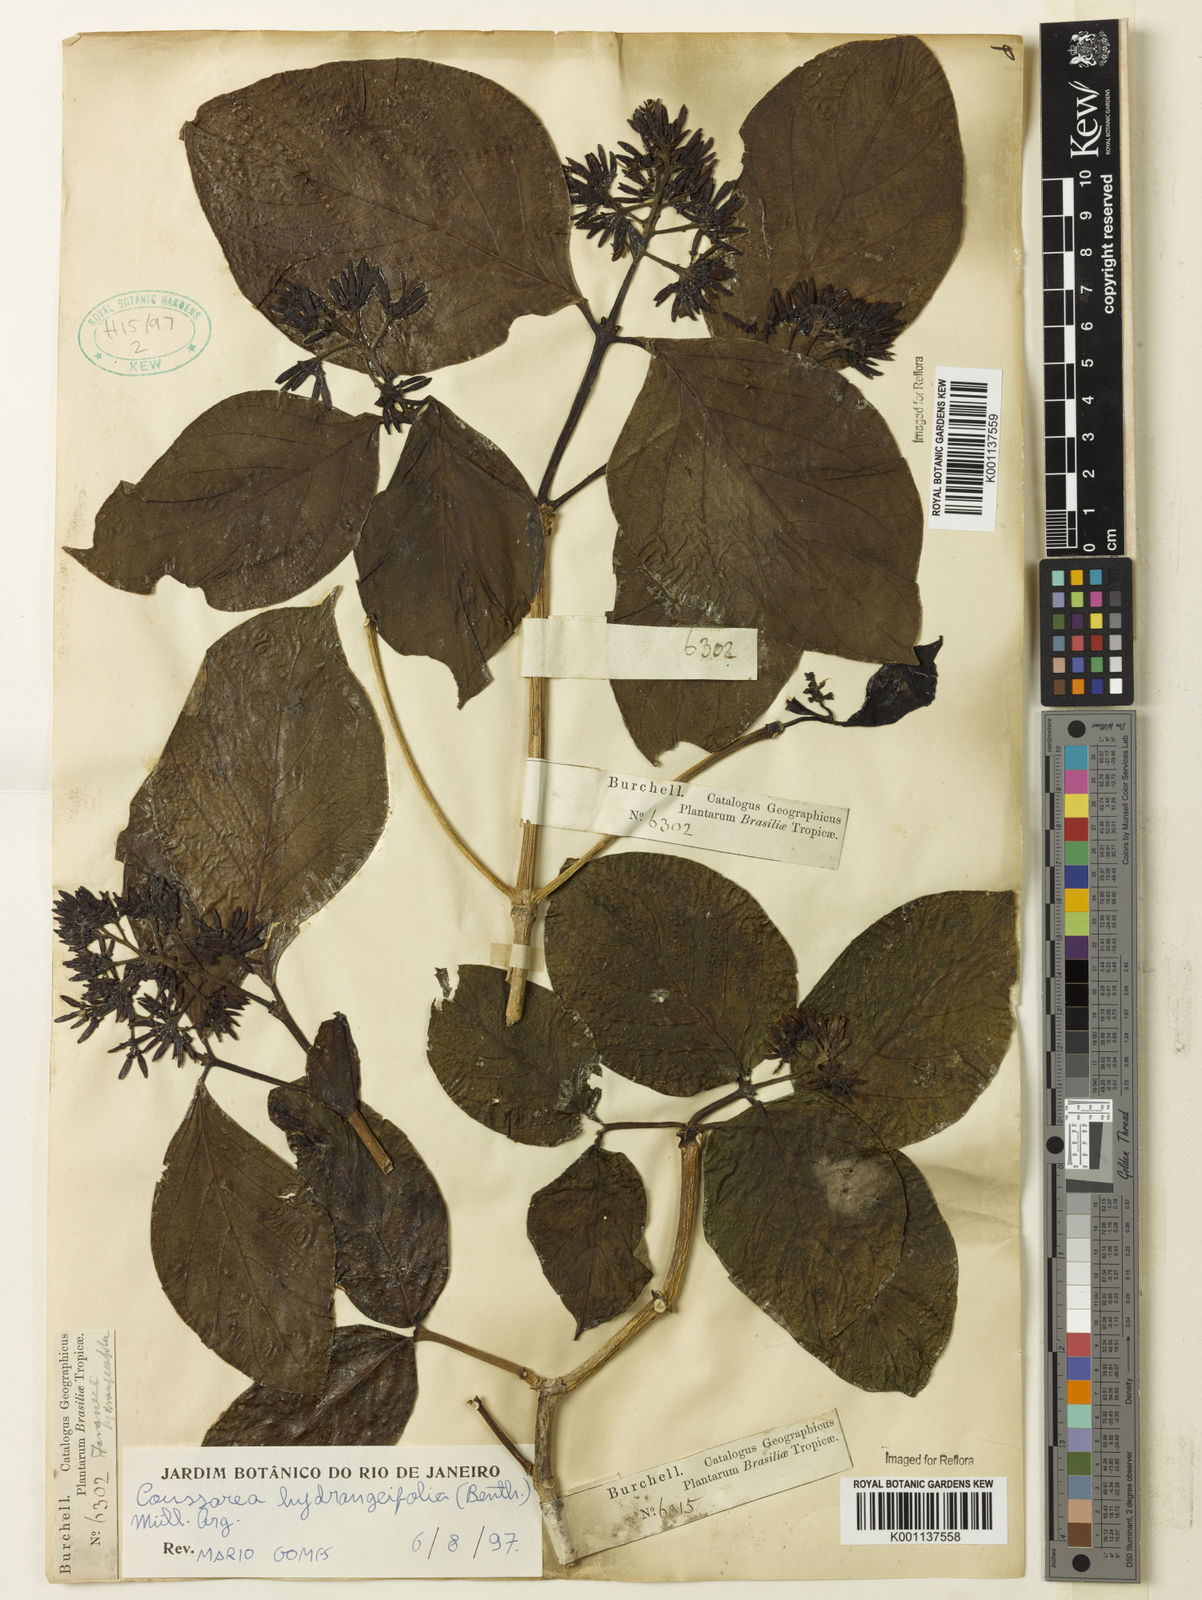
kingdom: Plantae
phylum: Tracheophyta
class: Magnoliopsida
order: Gentianales
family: Rubiaceae
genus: Coussarea
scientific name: Coussarea
